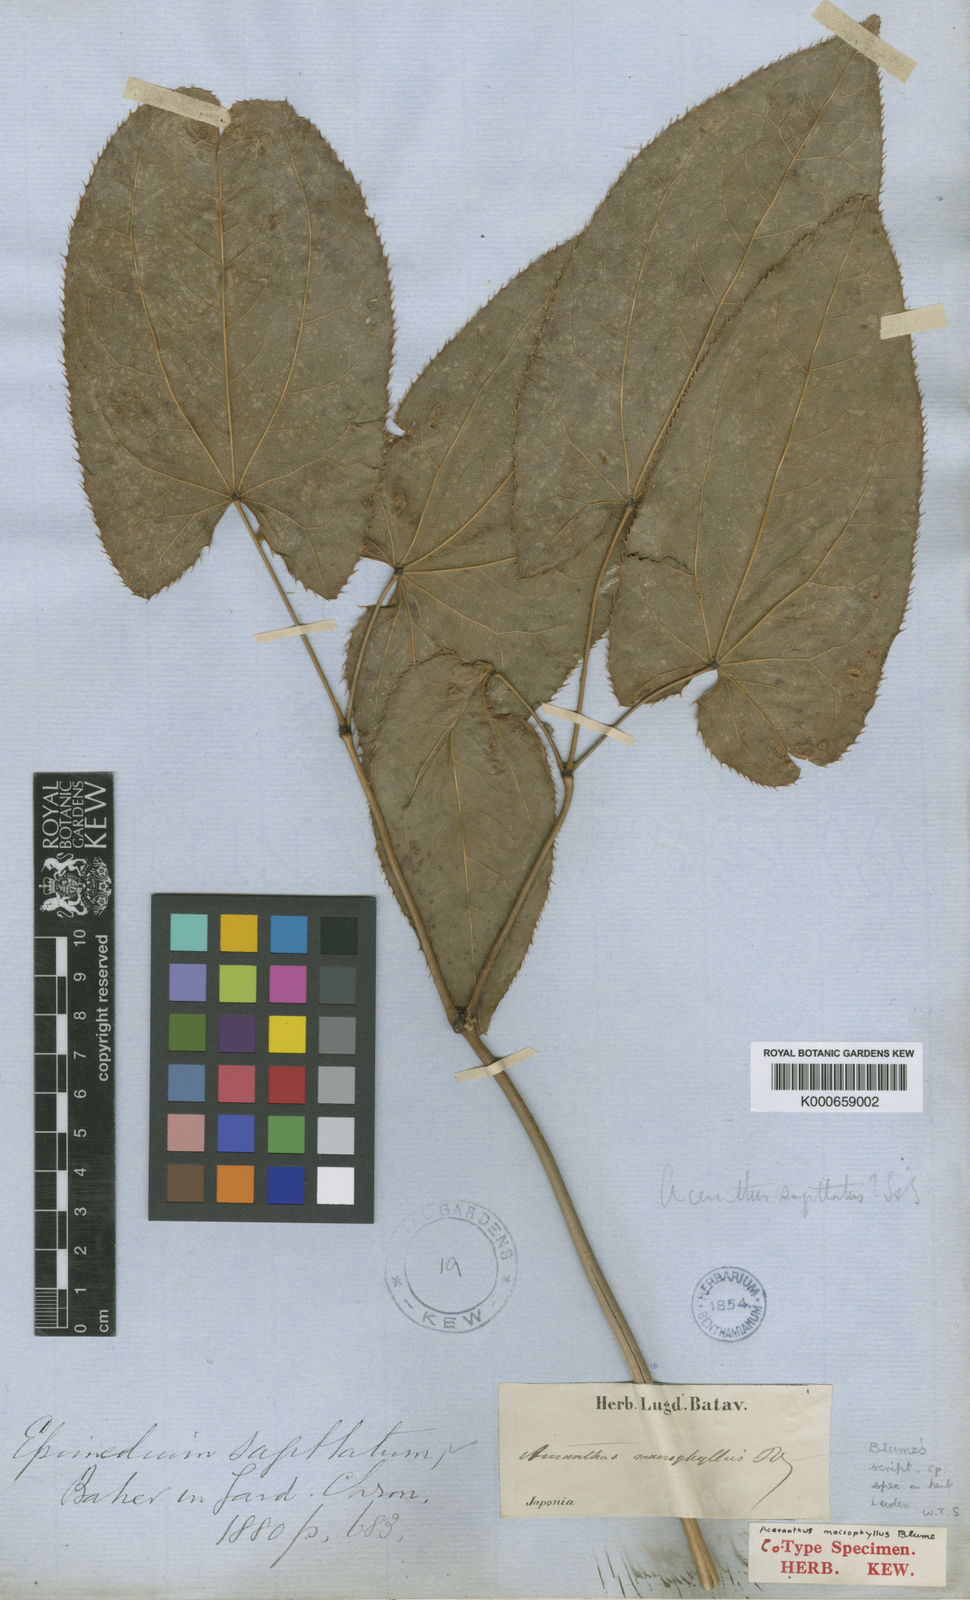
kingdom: Plantae
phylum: Tracheophyta
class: Magnoliopsida
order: Ranunculales
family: Berberidaceae
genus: Epimedium
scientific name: Epimedium
